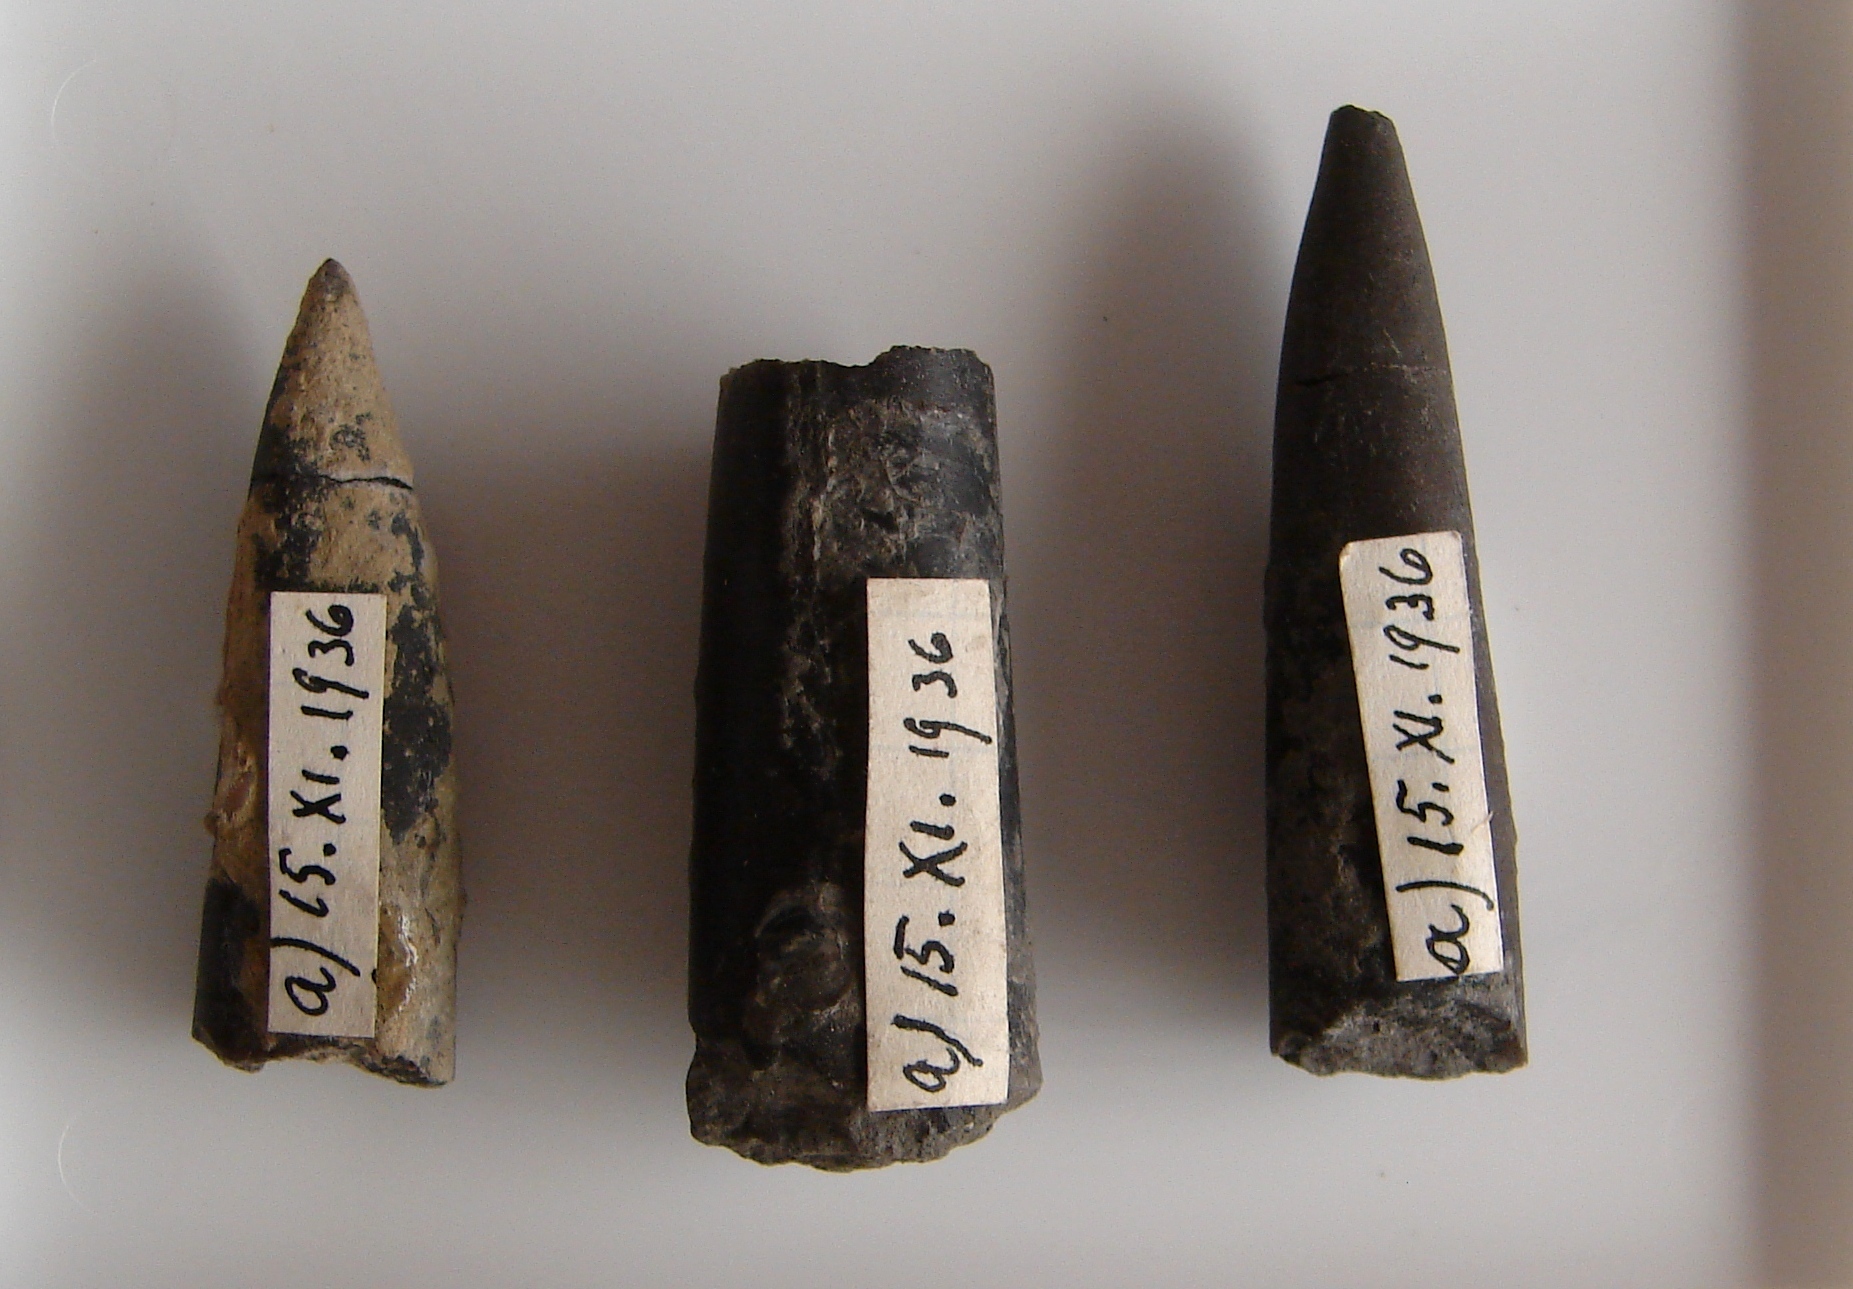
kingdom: Animalia
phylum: Mollusca
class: Cephalopoda
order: Belemnitida
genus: Nannobelus
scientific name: Nannobelus
